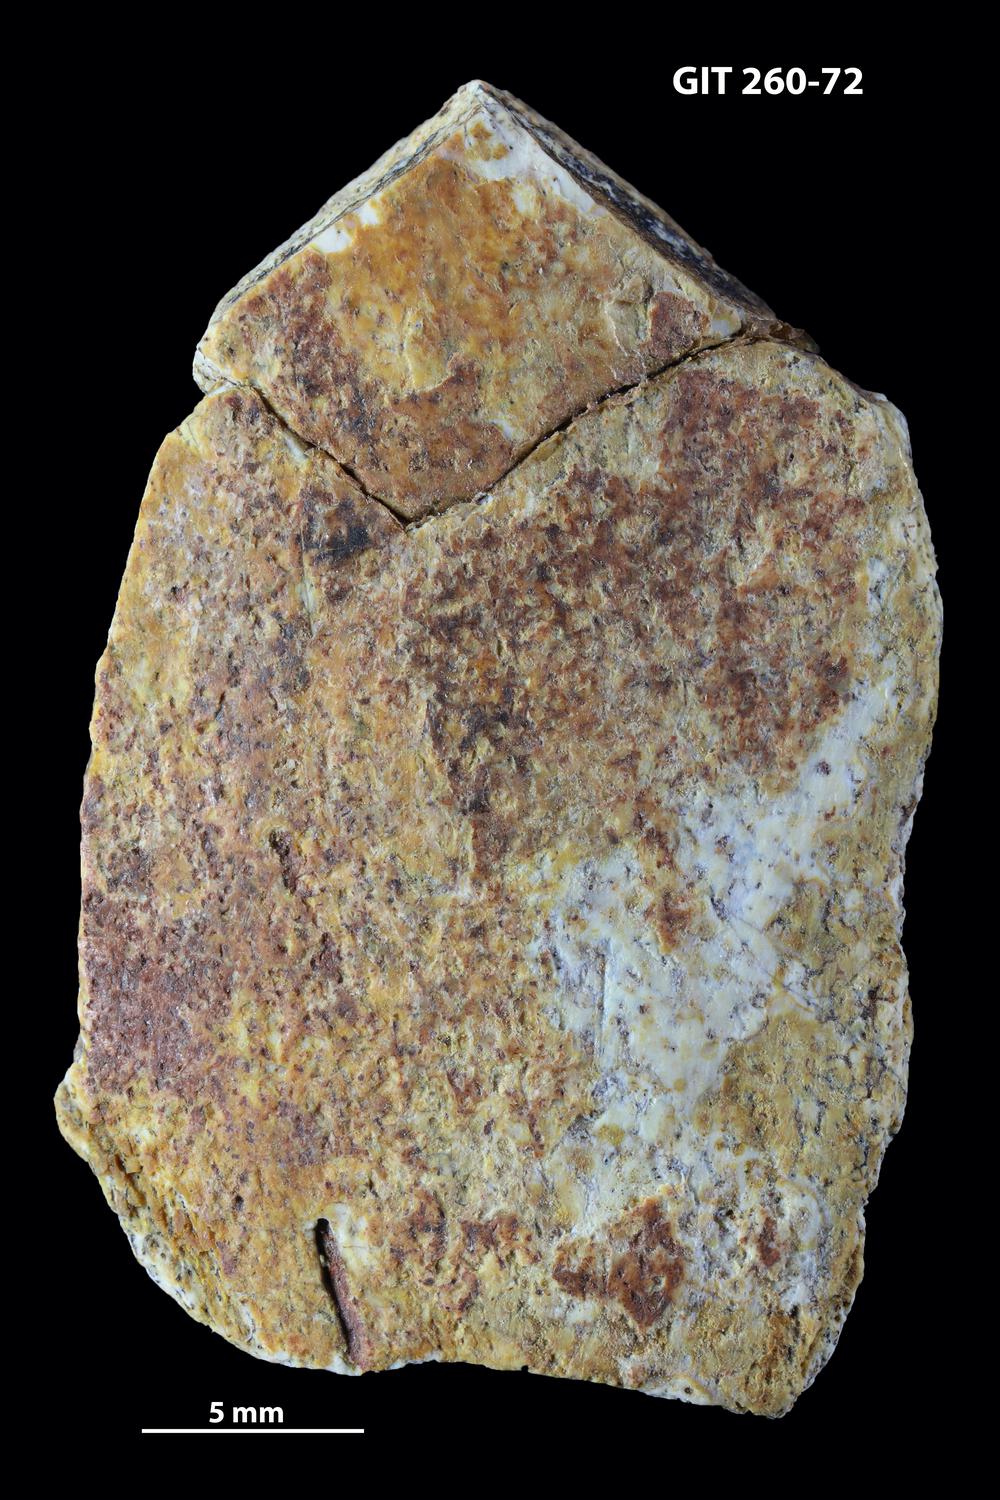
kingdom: Animalia
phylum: Chordata
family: Homostiidae
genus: Homostius
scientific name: Homostius
